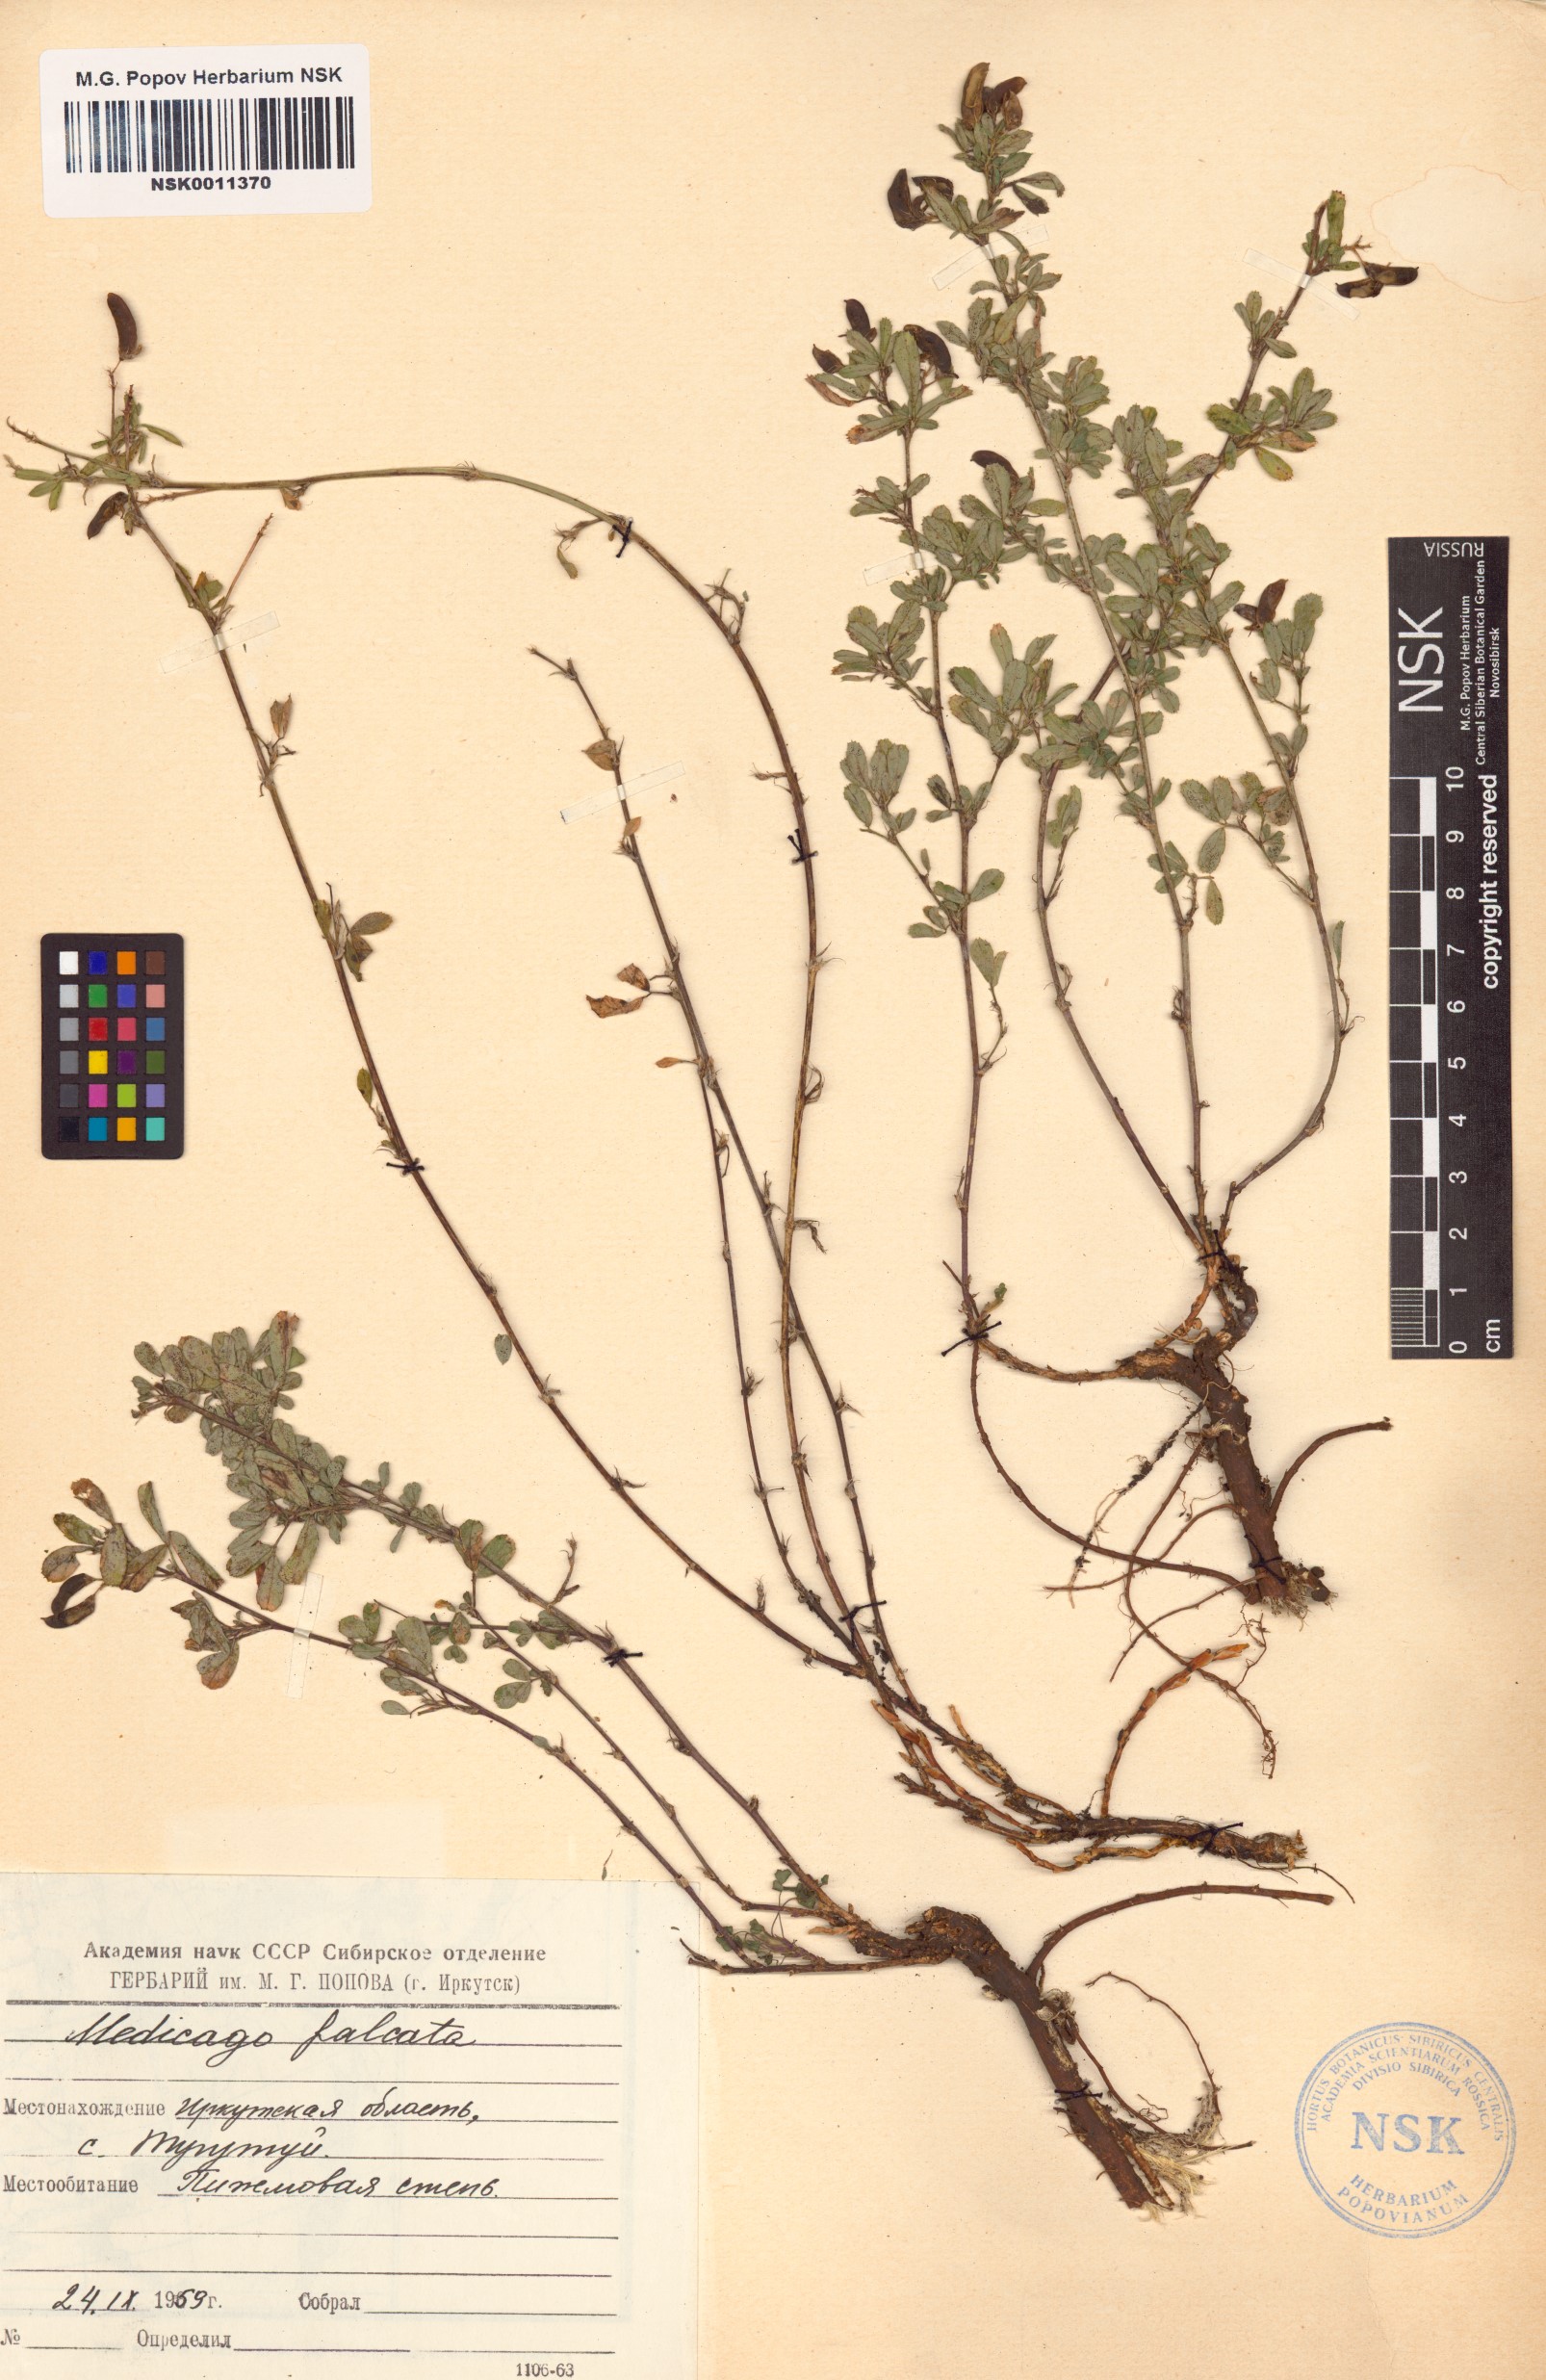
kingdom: Plantae
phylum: Tracheophyta
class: Magnoliopsida
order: Fabales
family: Fabaceae
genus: Medicago
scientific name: Medicago falcata
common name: Sickle medick
